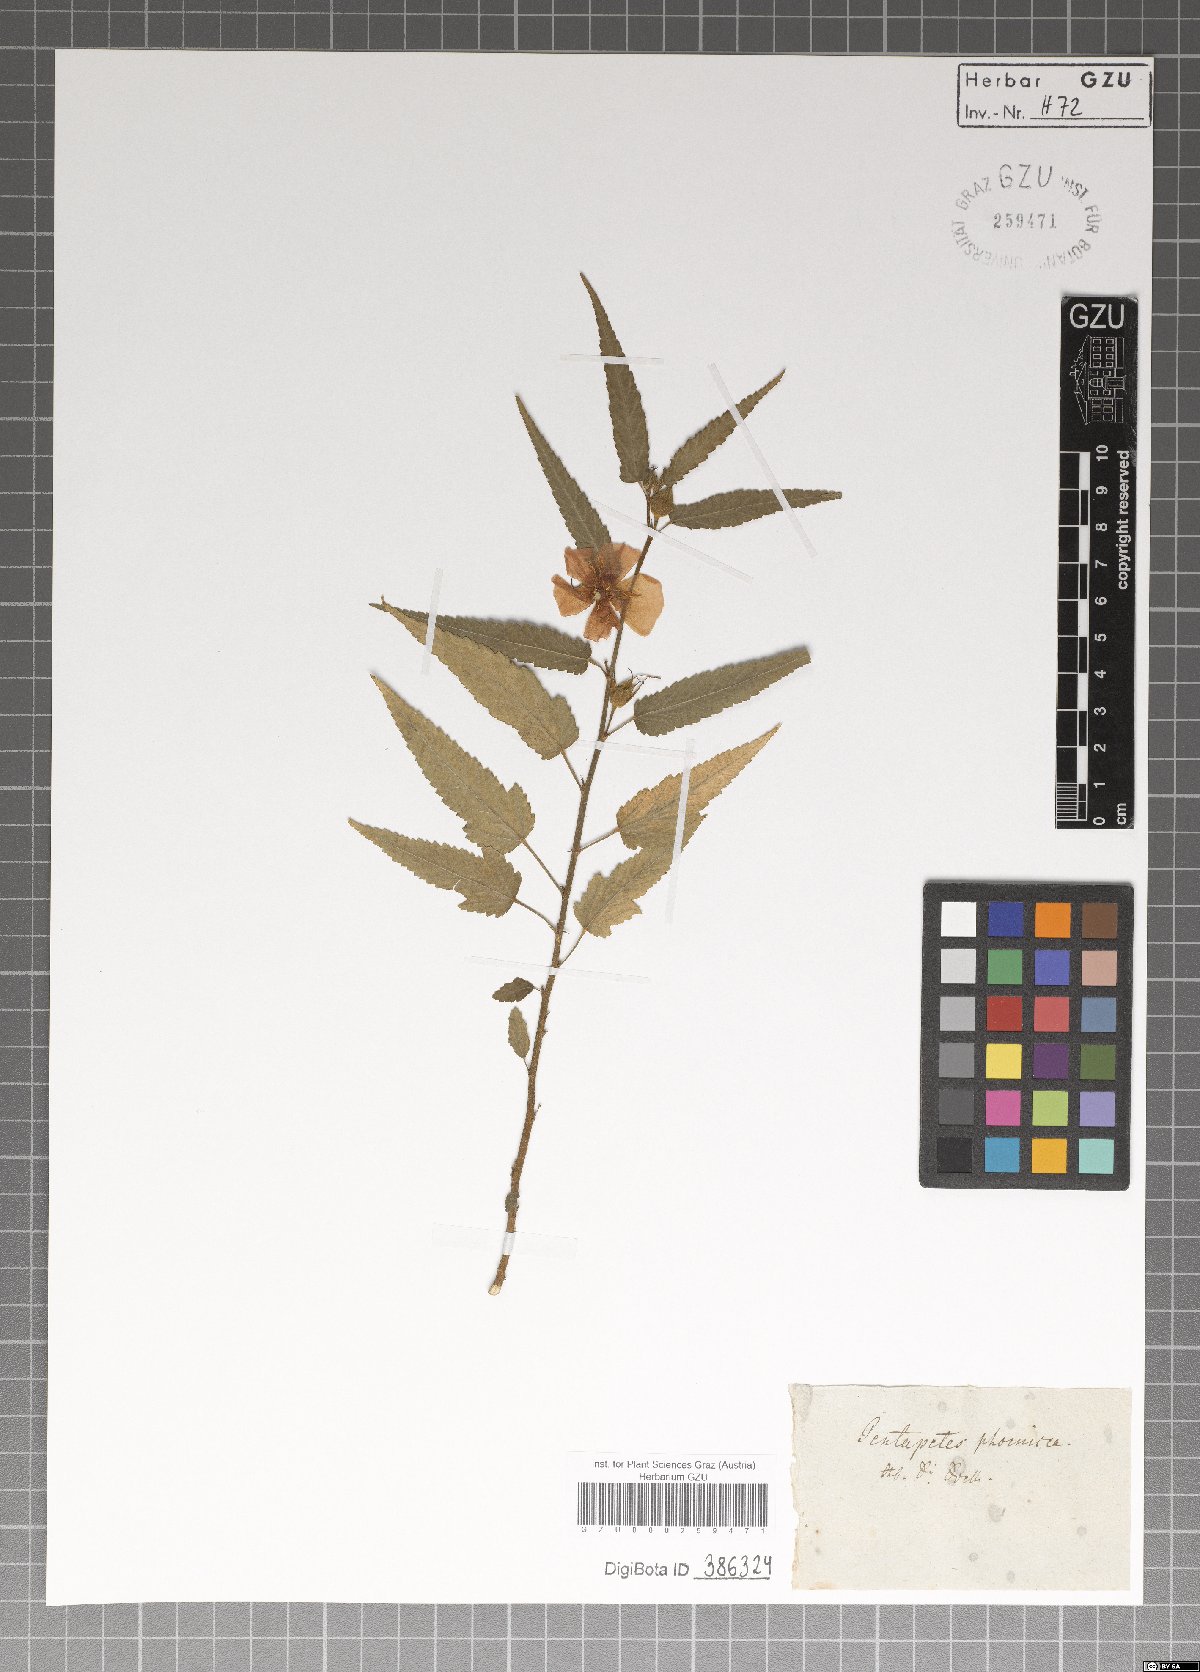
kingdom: Plantae
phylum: Tracheophyta
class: Magnoliopsida
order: Malvales
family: Malvaceae
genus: Pentapetes
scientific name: Pentapetes phoenicea
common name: Copper-cups
